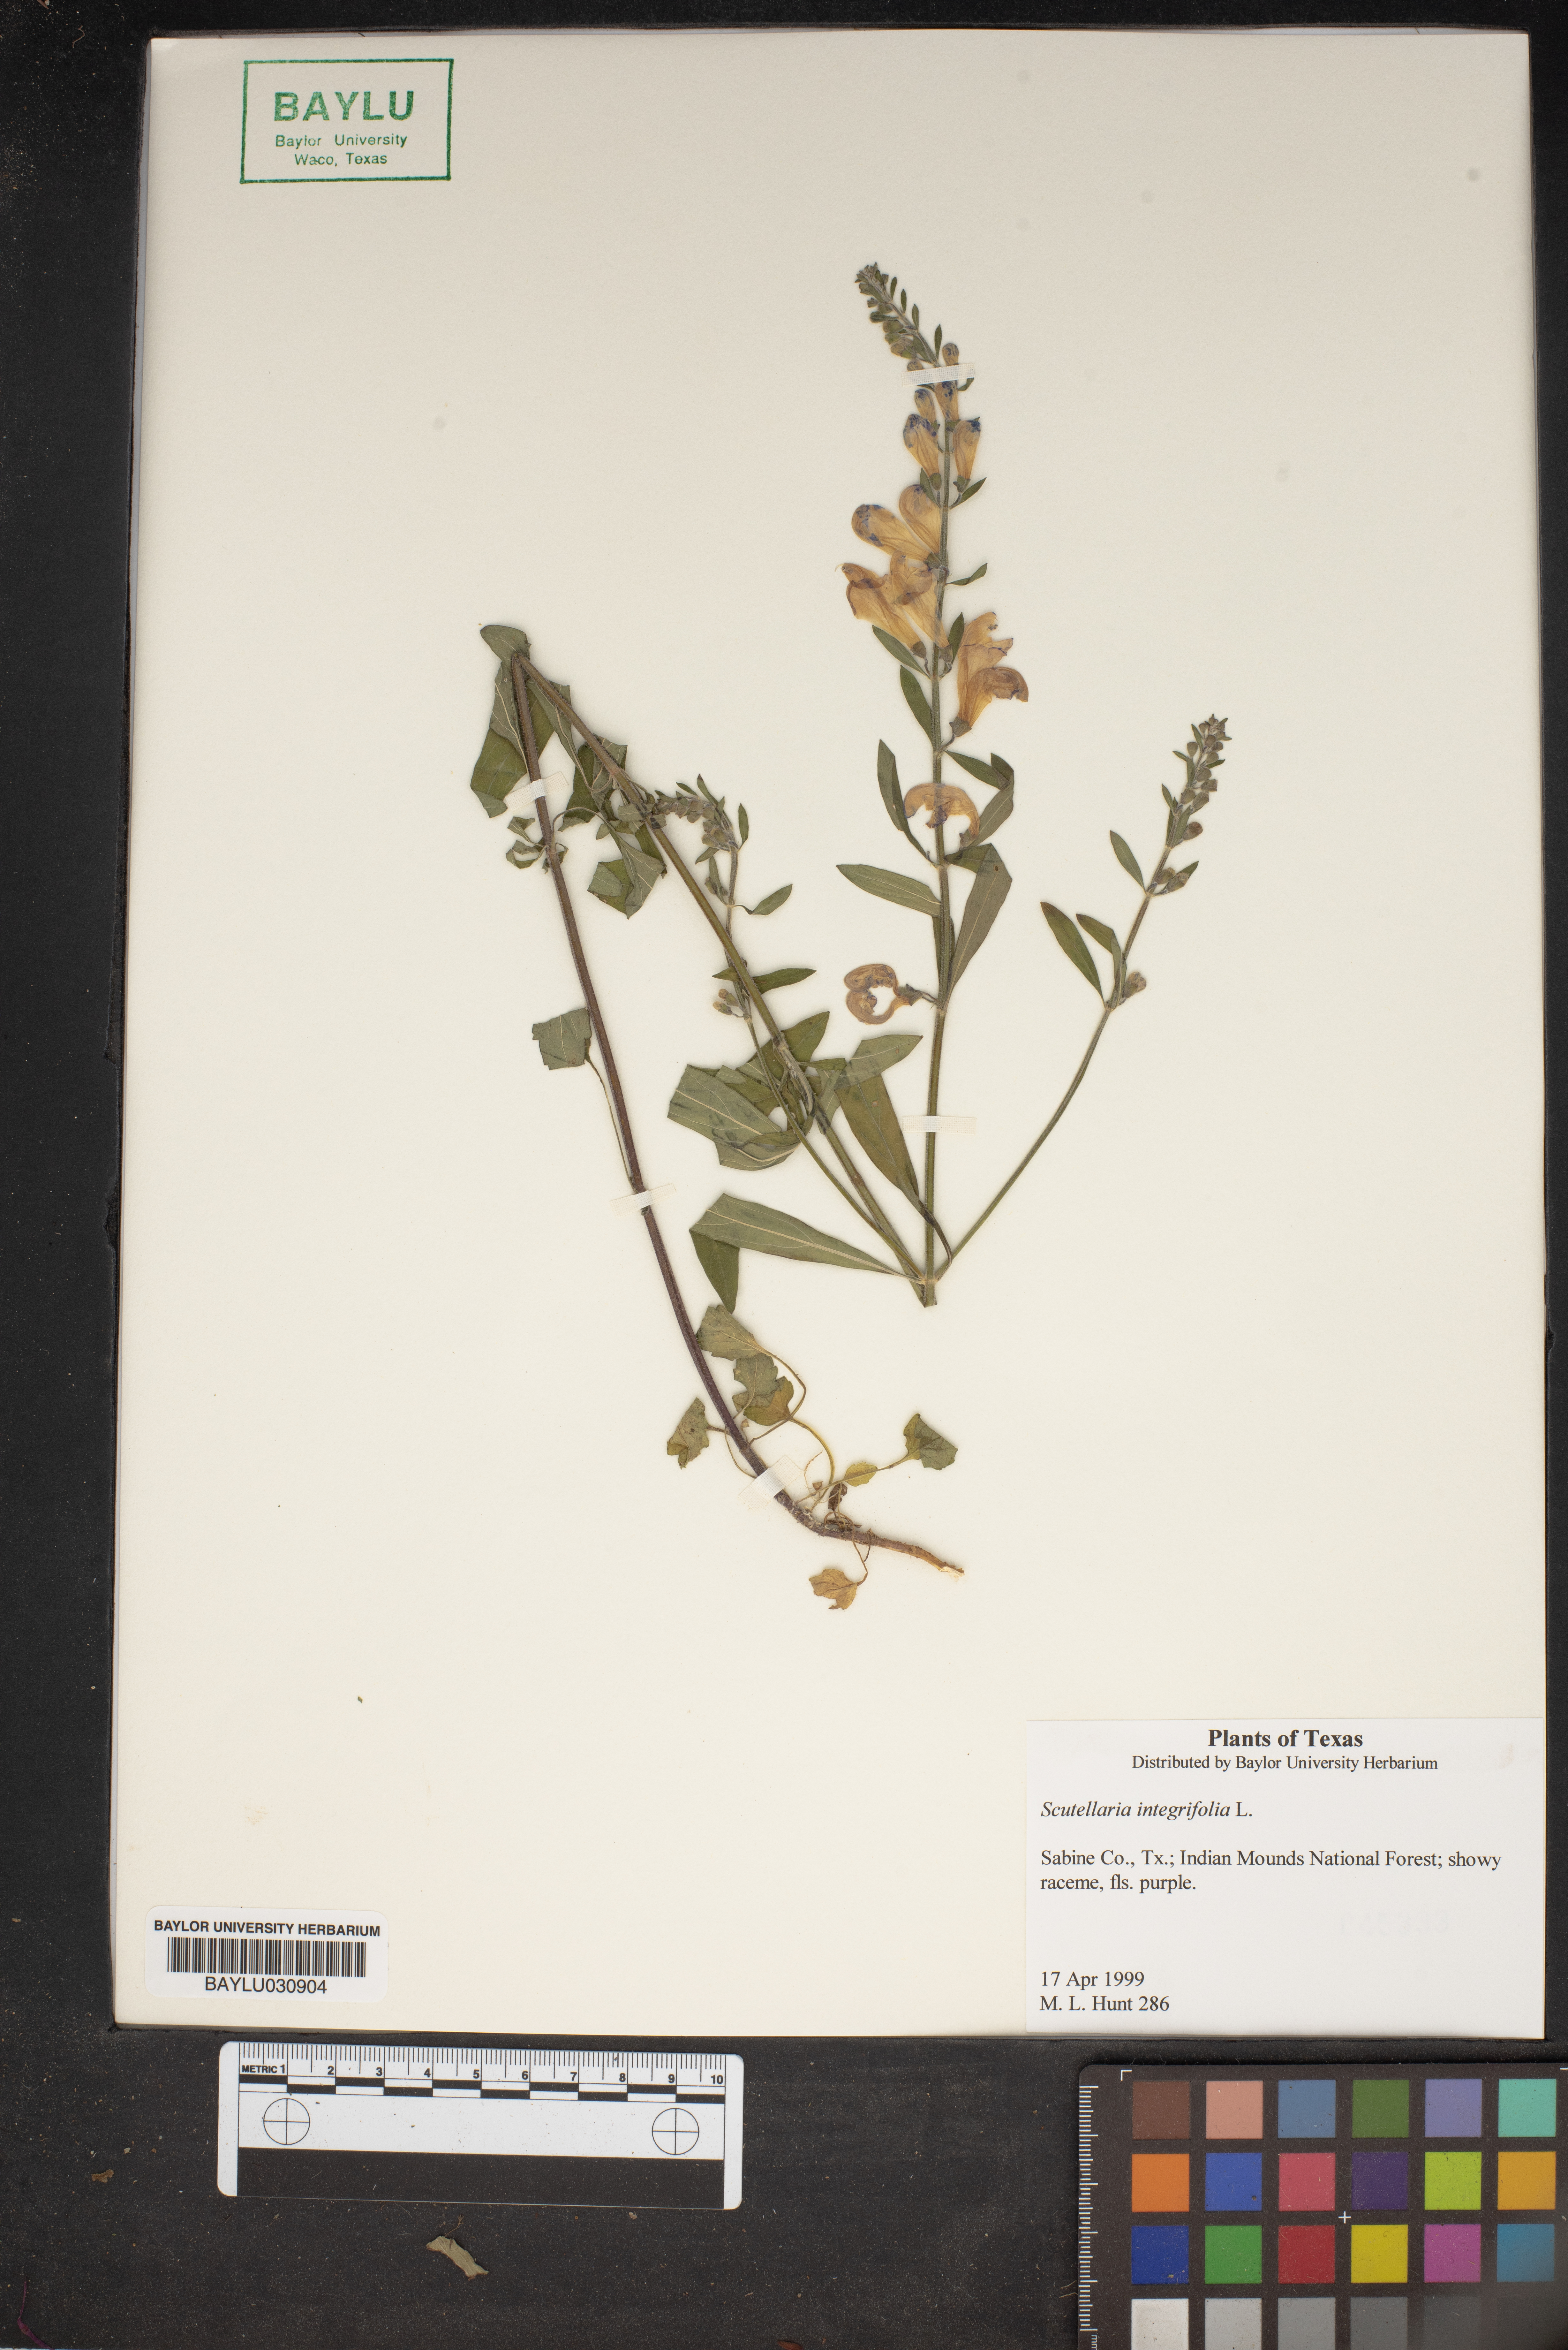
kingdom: Plantae
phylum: Tracheophyta
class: Magnoliopsida
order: Lamiales
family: Lamiaceae
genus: Scutellaria
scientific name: Scutellaria integrifolia
